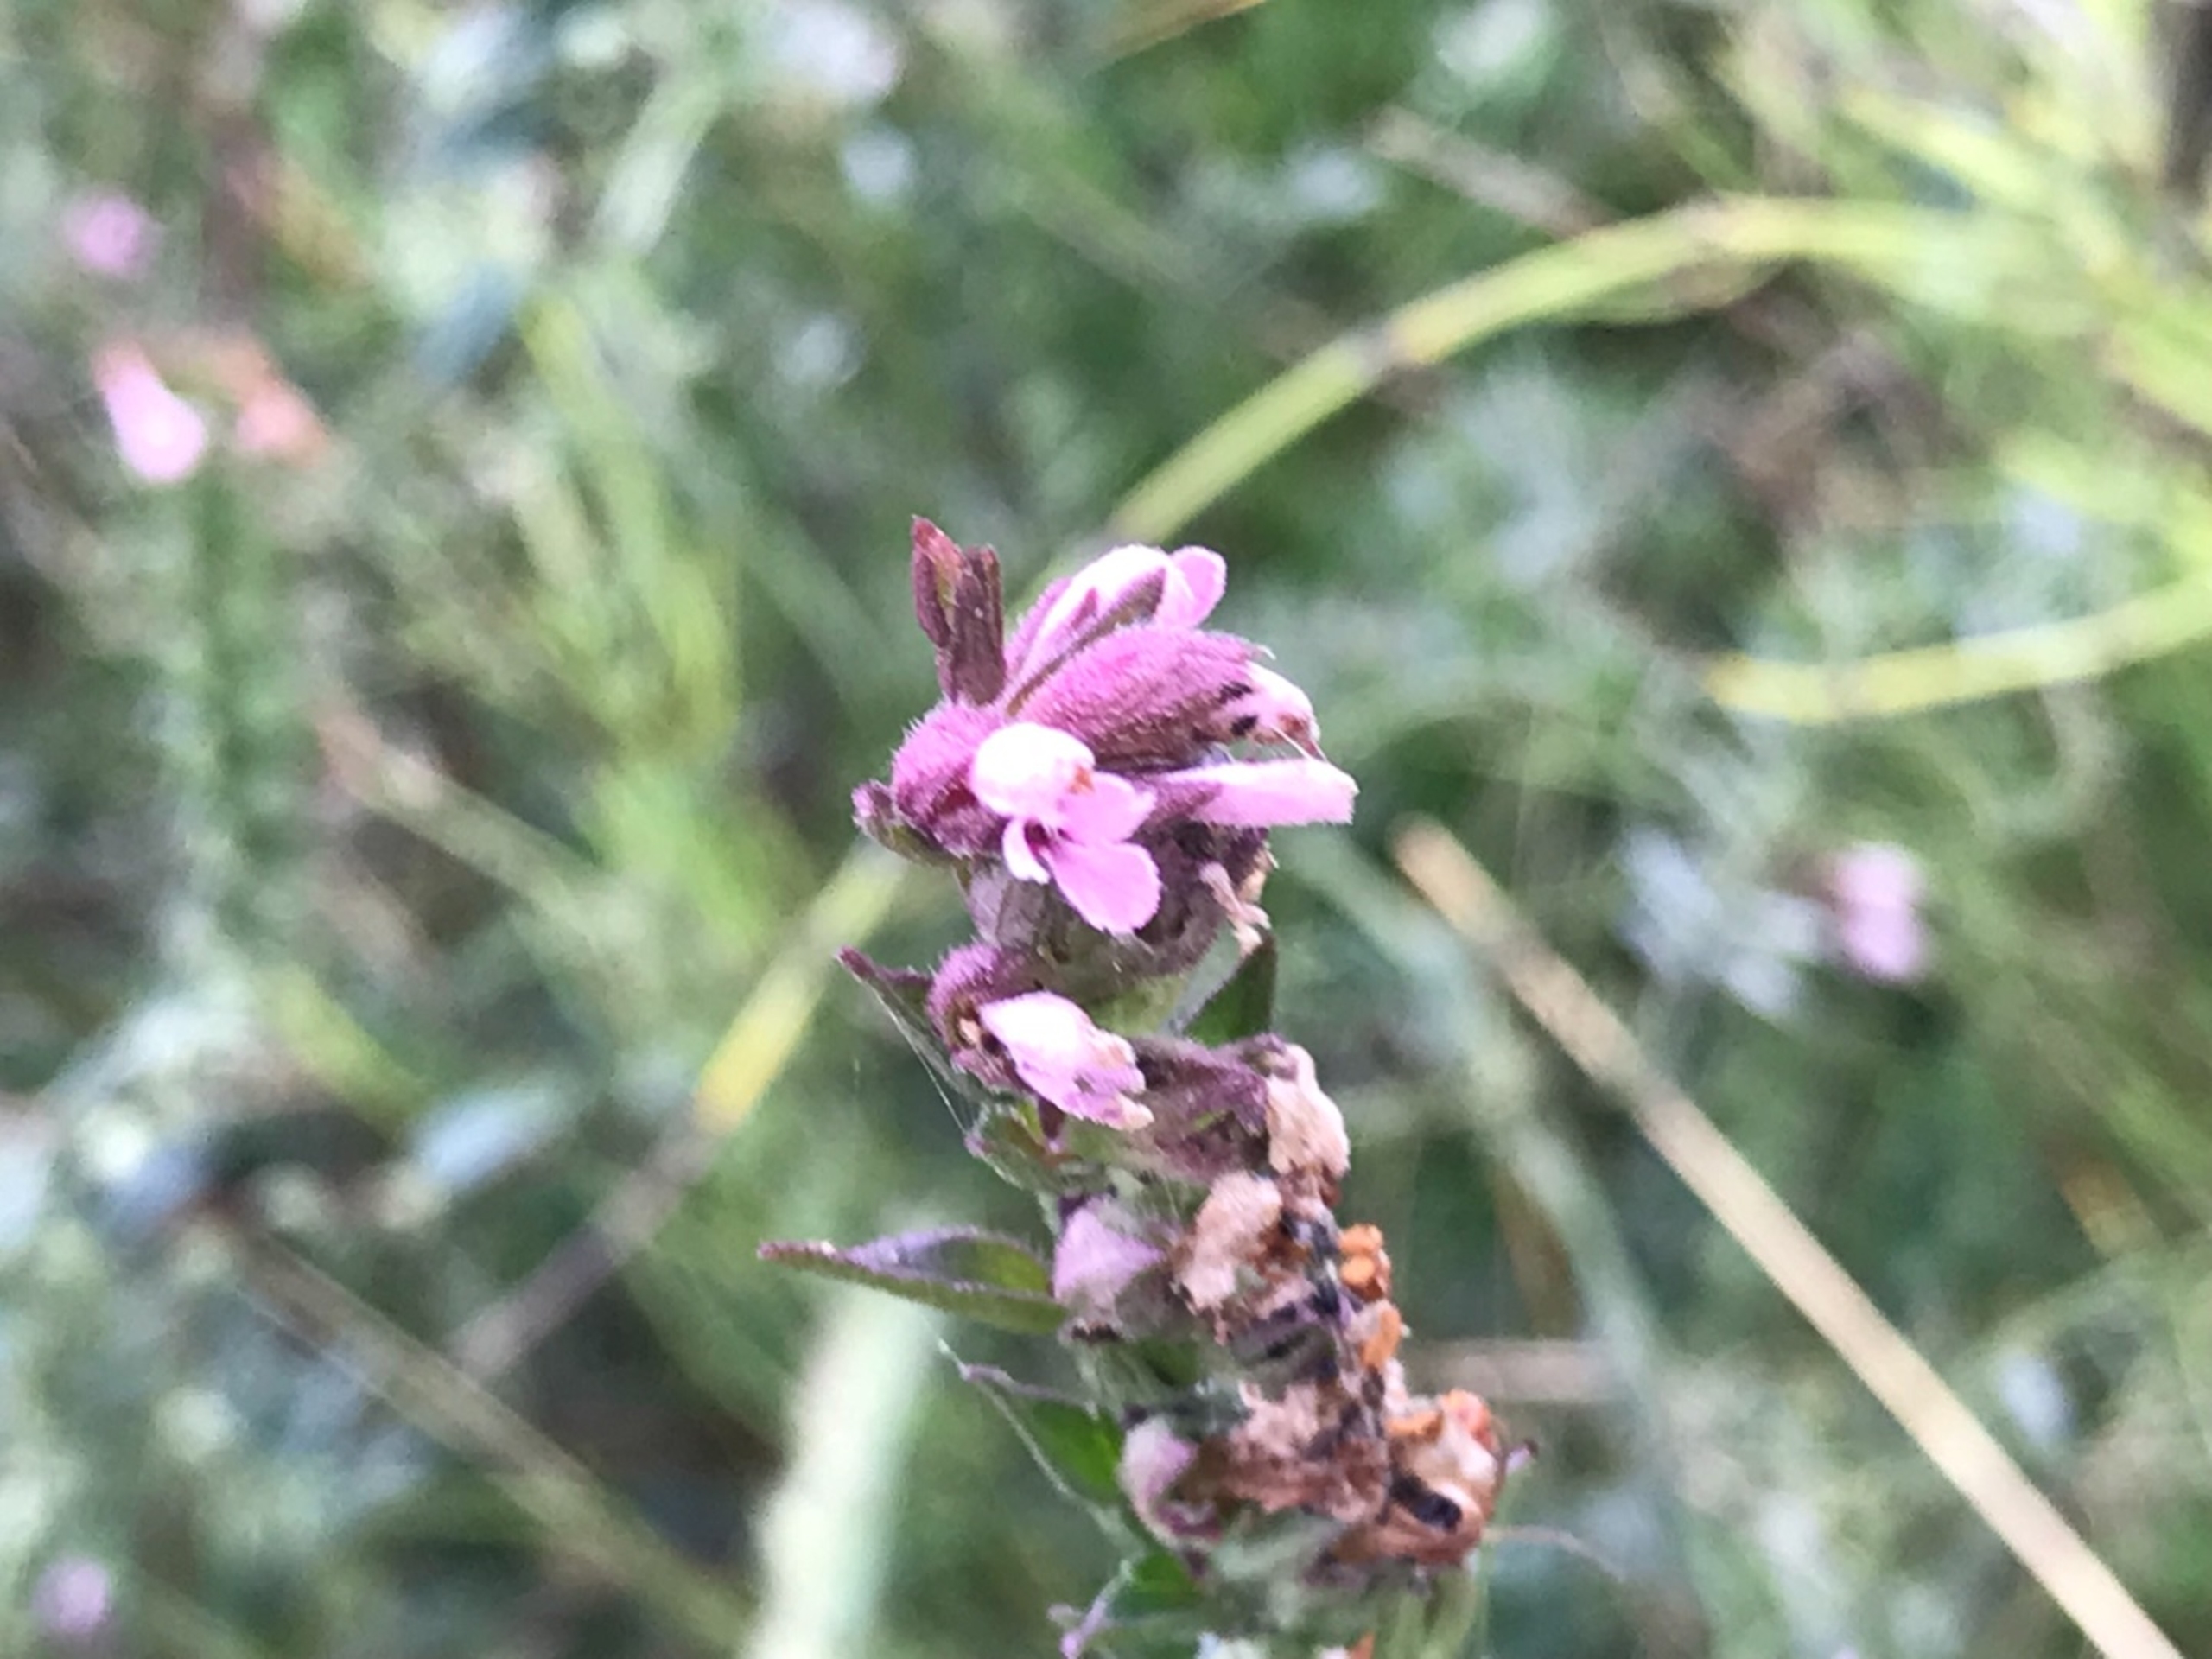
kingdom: Plantae
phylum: Tracheophyta
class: Magnoliopsida
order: Lamiales
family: Orobanchaceae
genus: Odontites
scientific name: Odontites vulgaris
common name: Høst-rødtop
